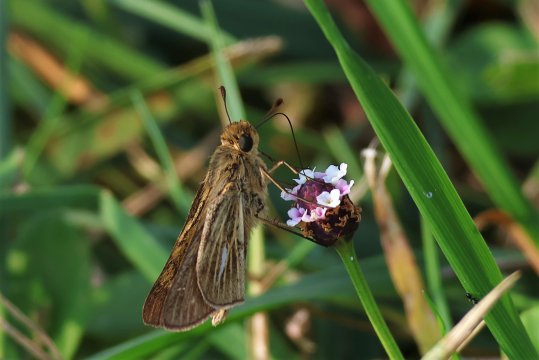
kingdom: Animalia
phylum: Arthropoda
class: Insecta
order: Lepidoptera
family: Hesperiidae
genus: Panoquina
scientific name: Panoquina panoquin
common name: Salt Marsh Skipper
